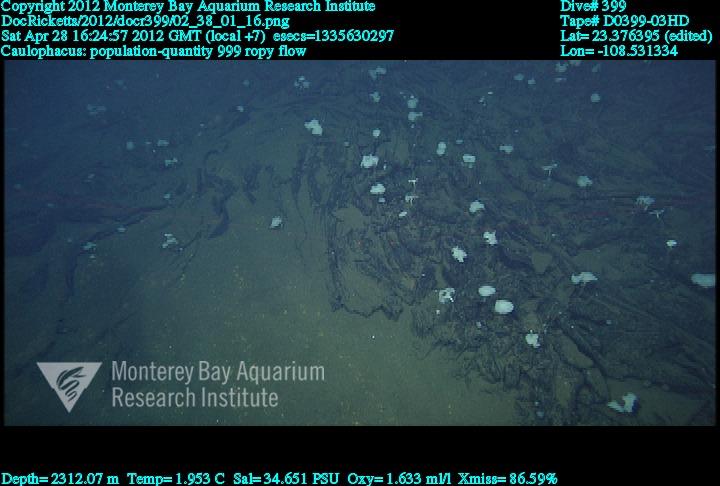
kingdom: Animalia
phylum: Porifera
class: Hexactinellida
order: Lyssacinosida
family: Rossellidae
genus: Caulophacus
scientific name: Caulophacus
